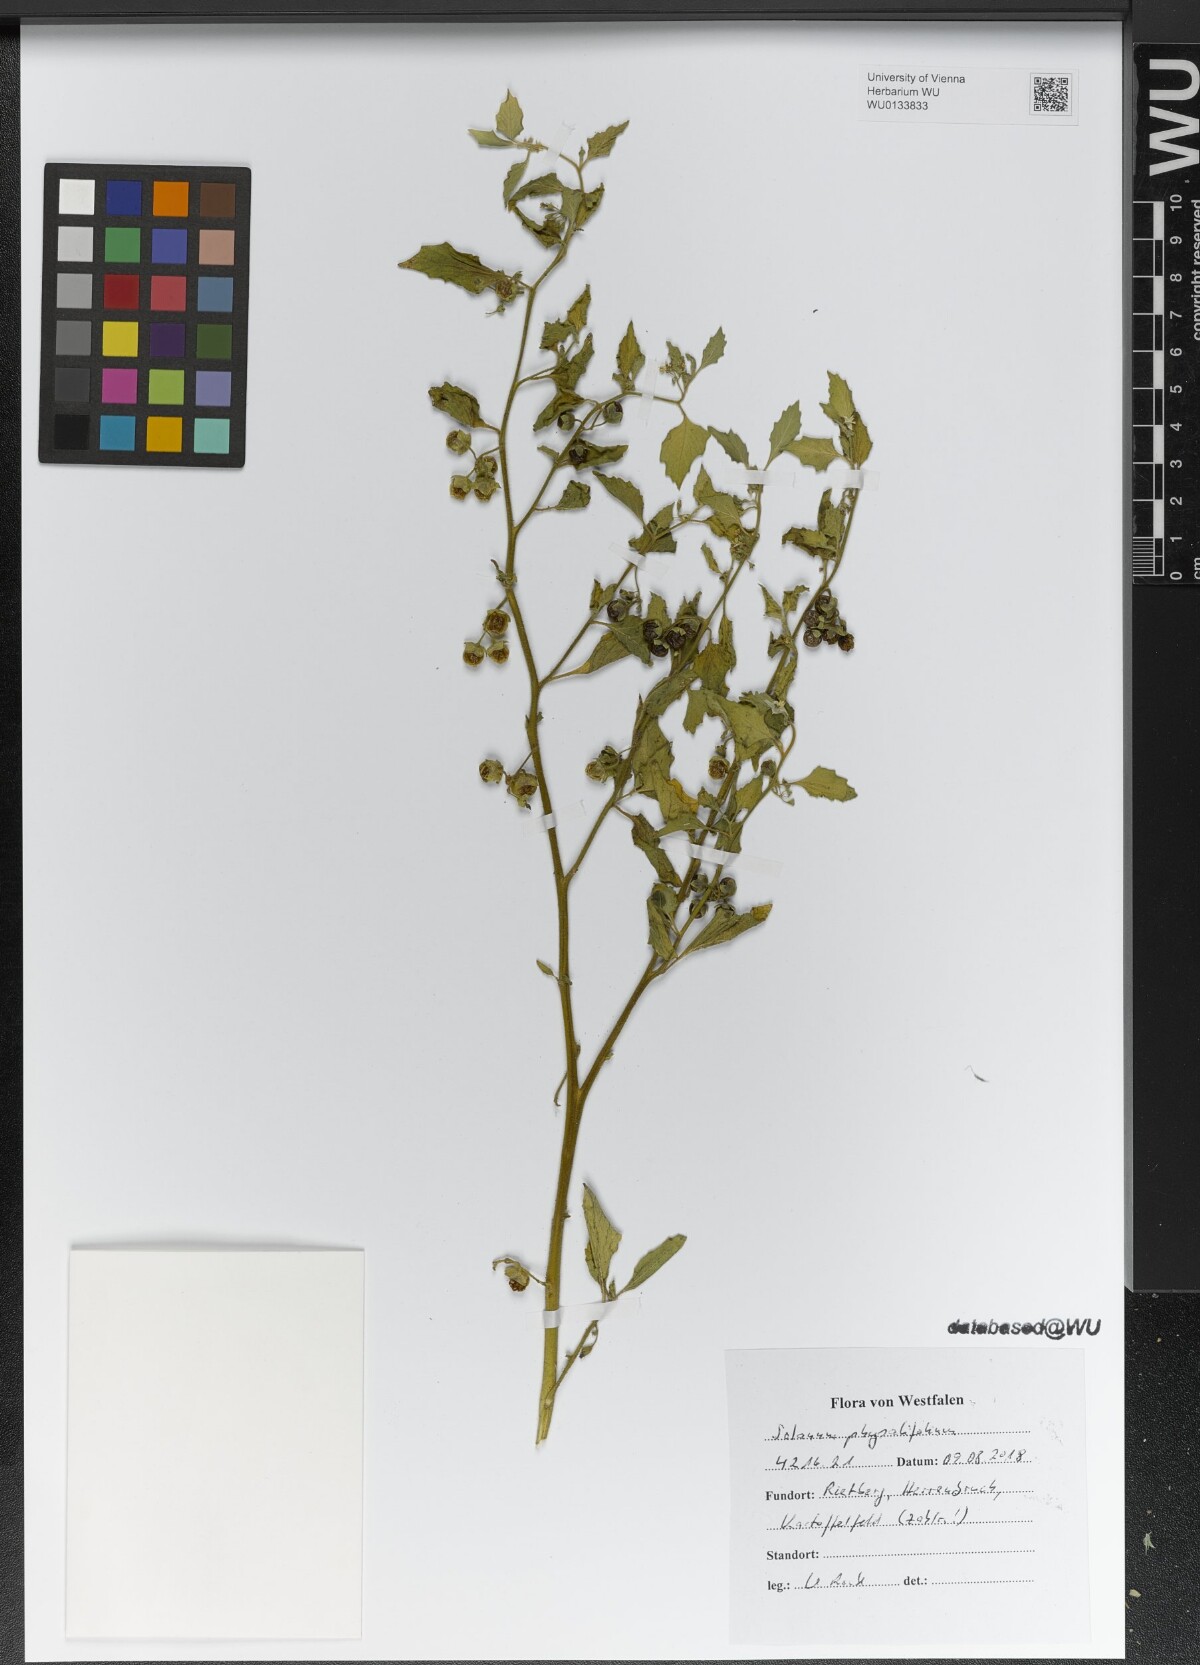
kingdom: Plantae
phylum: Tracheophyta
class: Magnoliopsida
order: Solanales
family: Solanaceae
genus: Solanum
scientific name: Solanum physalifolium
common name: Green nightshade
